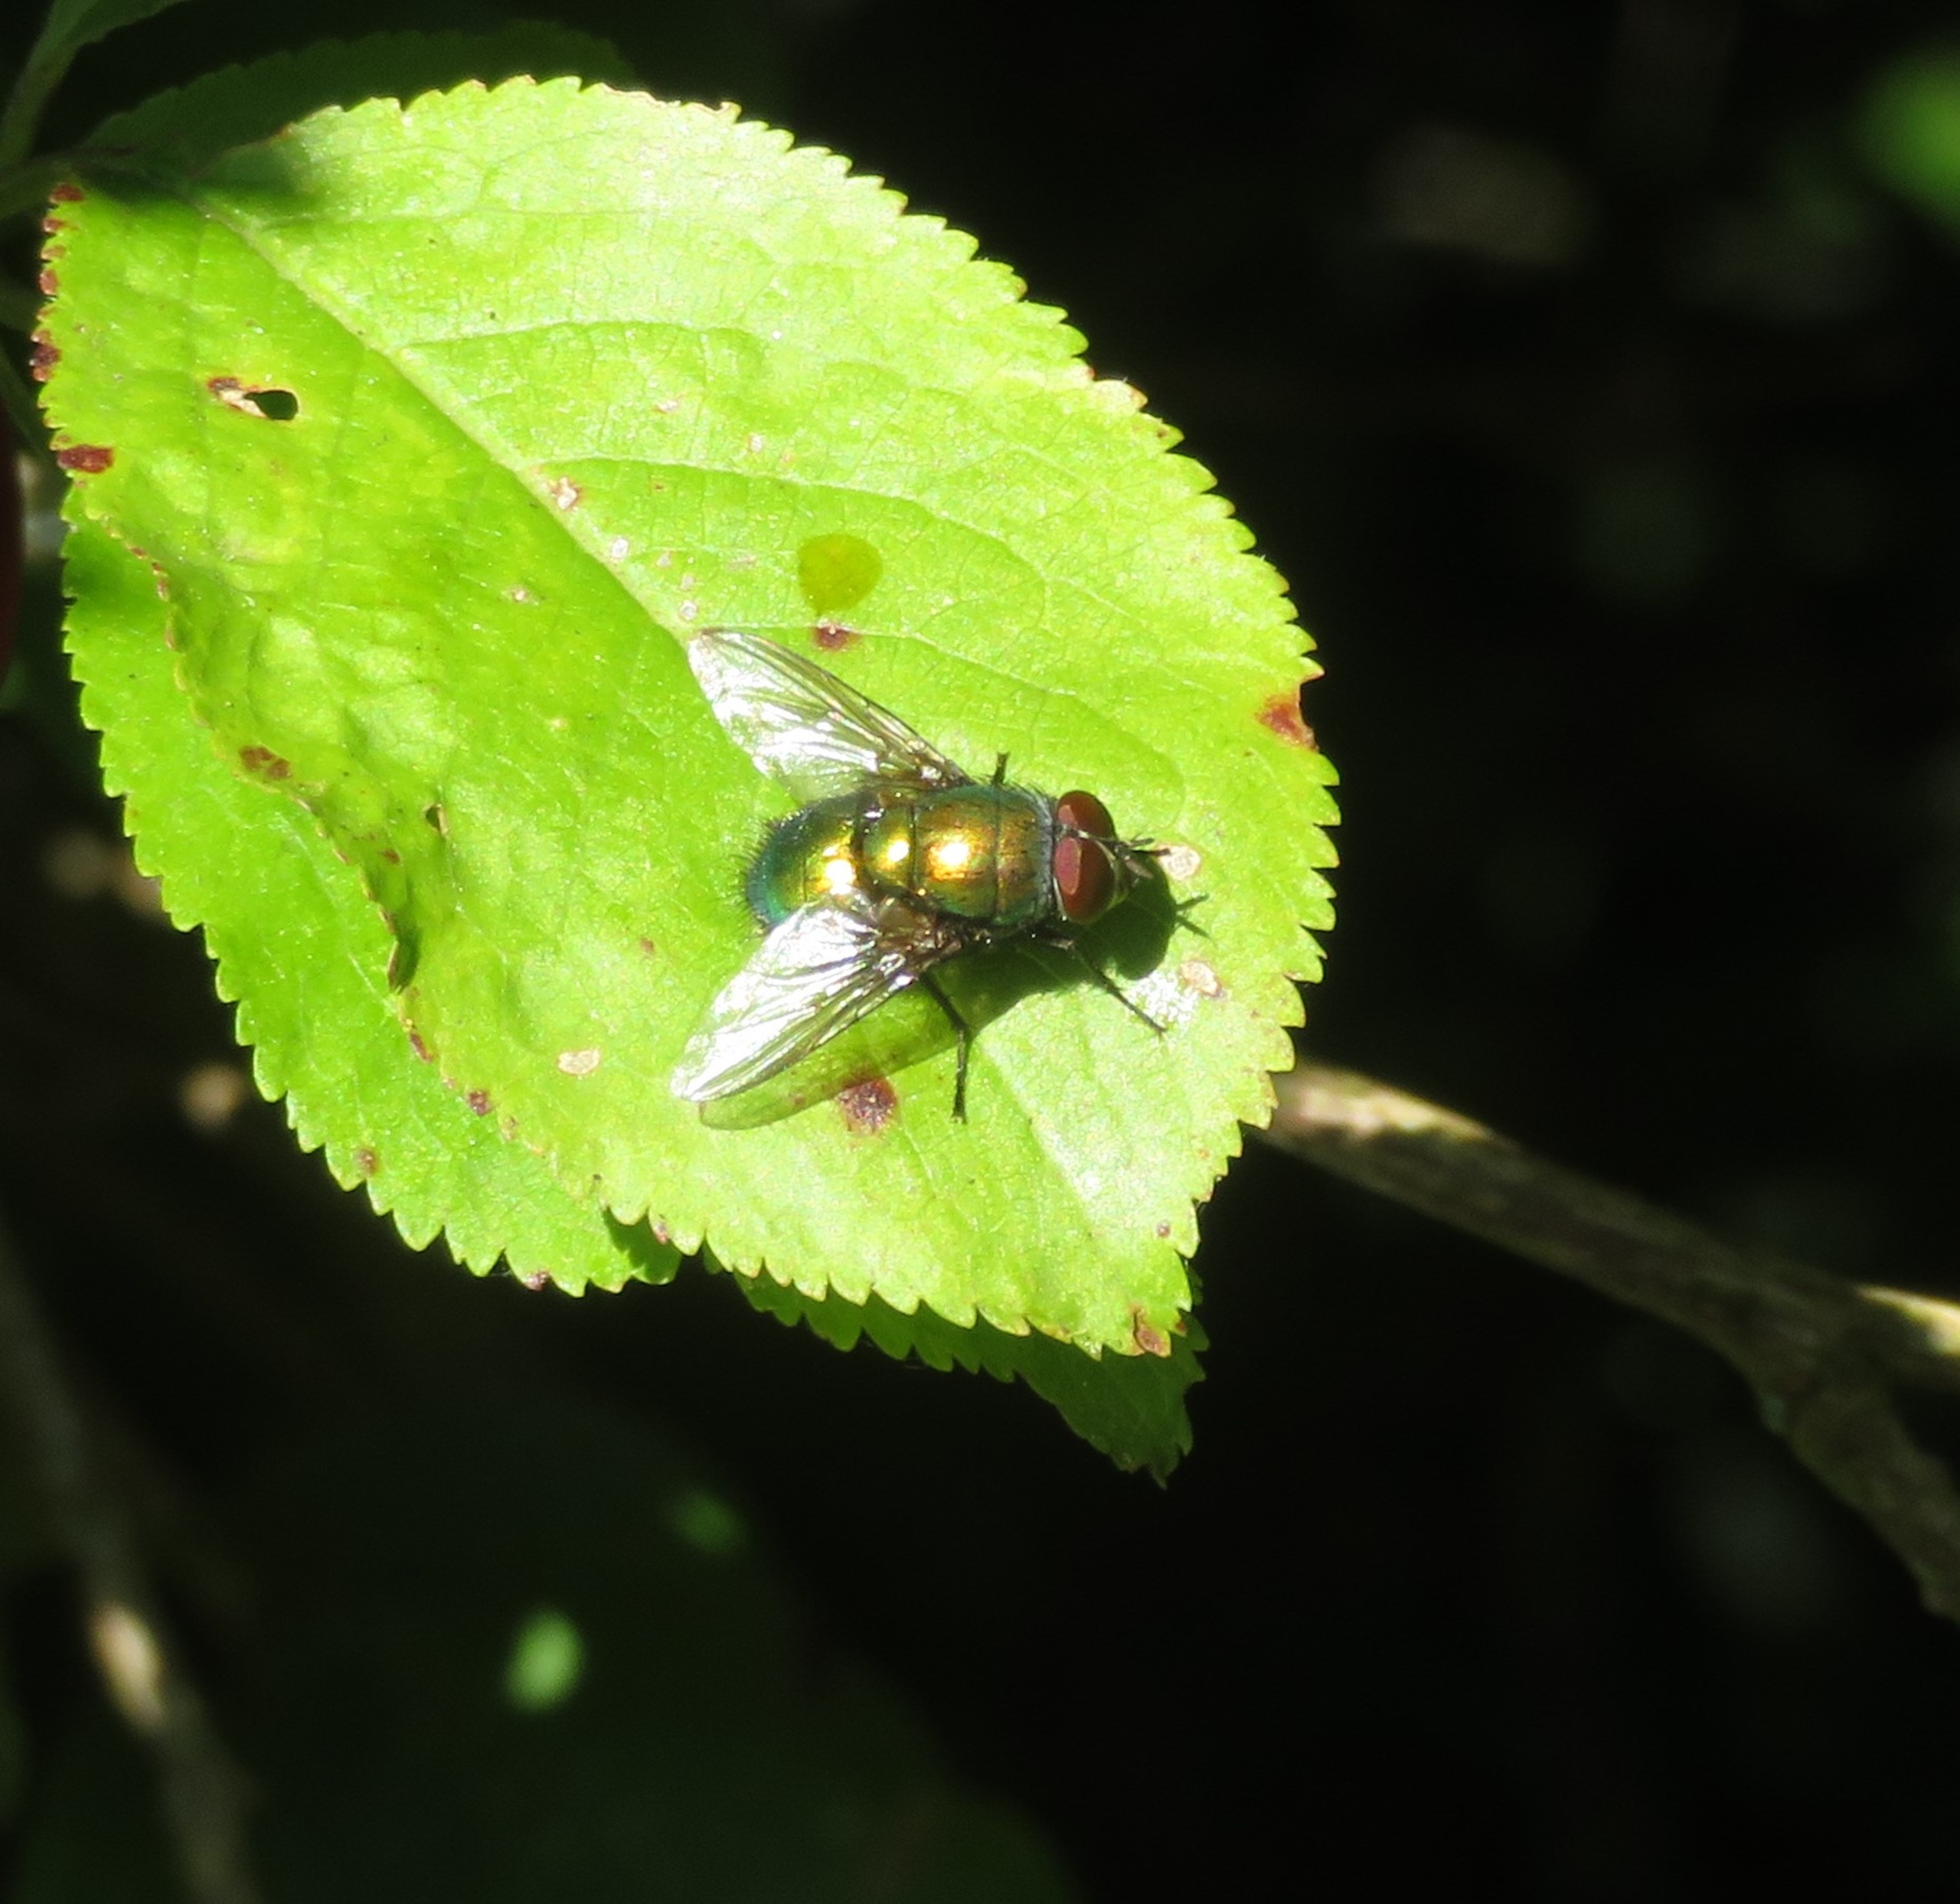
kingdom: Animalia
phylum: Arthropoda
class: Insecta
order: Diptera
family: Calliphoridae
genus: Lucilia
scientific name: Lucilia
